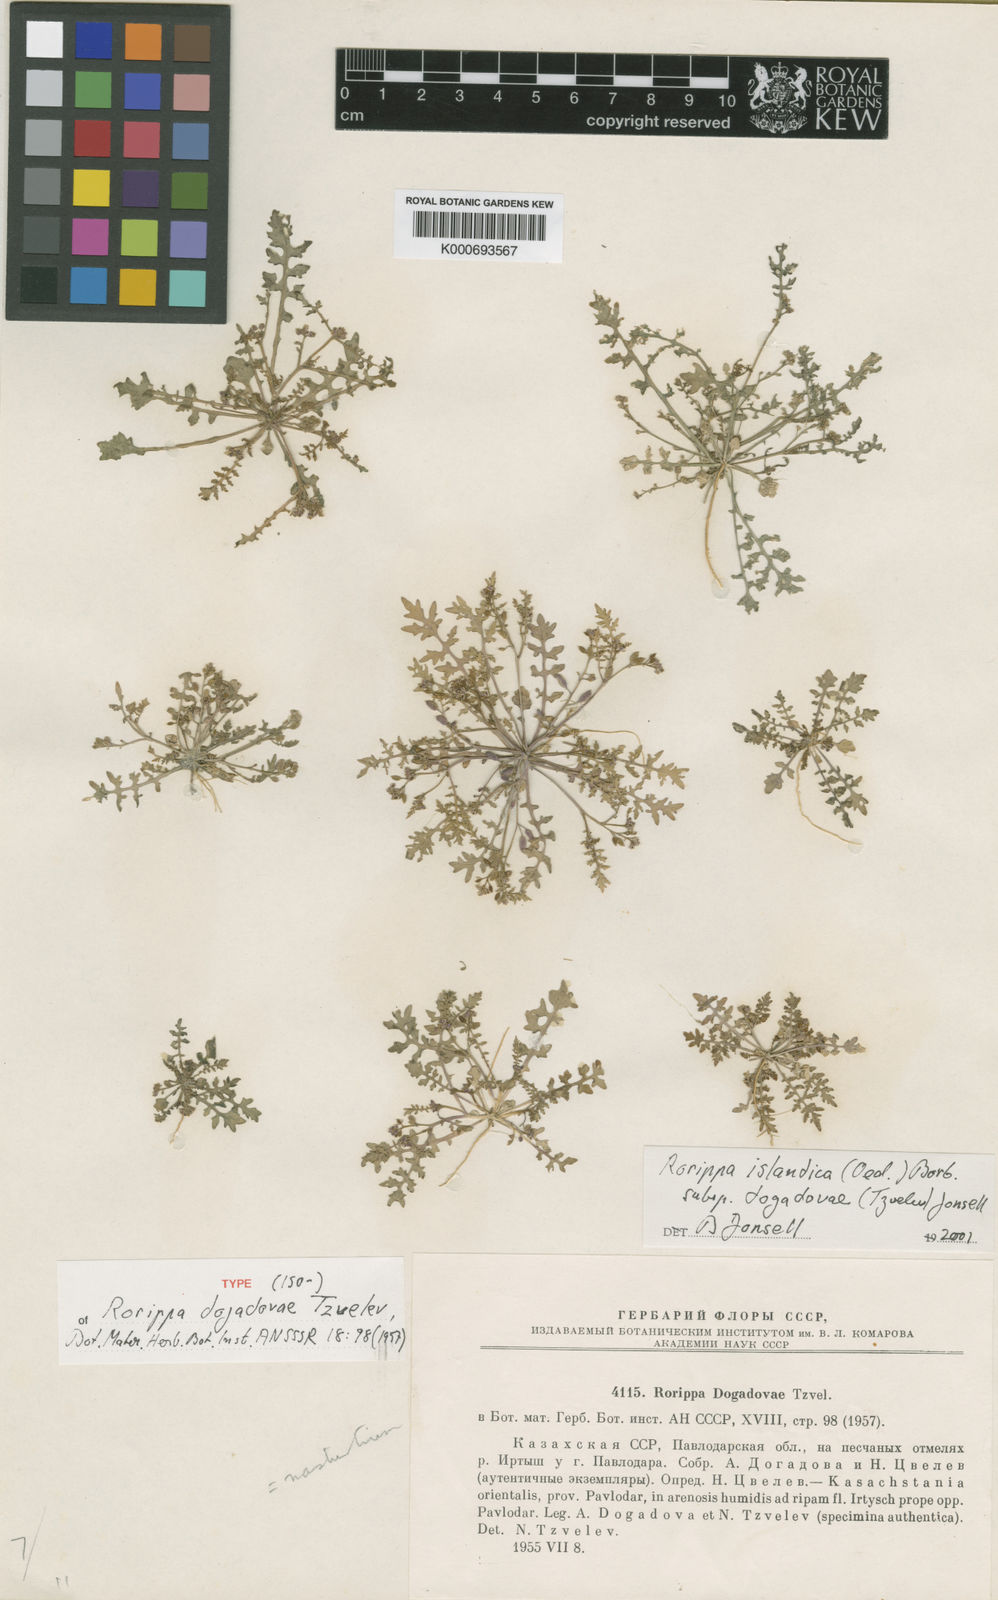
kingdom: Plantae
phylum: Tracheophyta
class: Magnoliopsida
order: Brassicales
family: Brassicaceae
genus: Rorippa
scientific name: Rorippa
